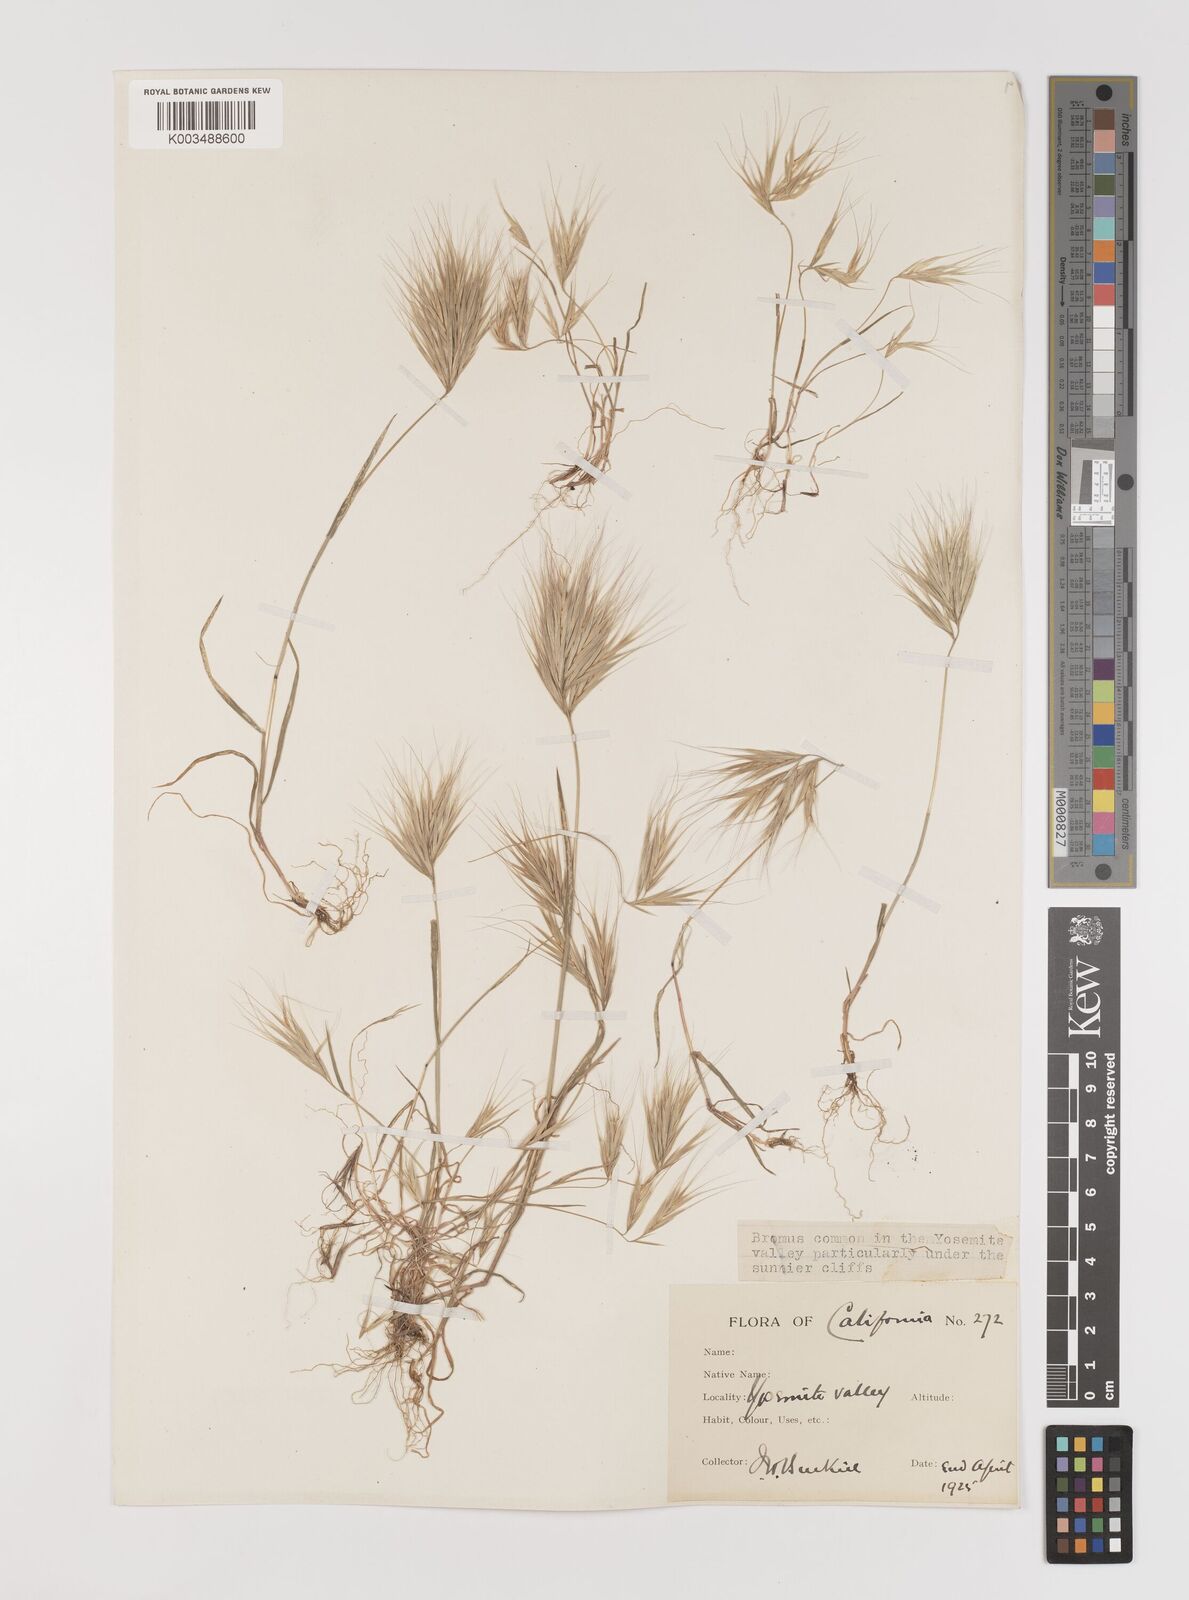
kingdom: Plantae
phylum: Tracheophyta
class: Liliopsida
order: Poales
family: Poaceae
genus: Bromus
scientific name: Bromus rubens
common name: Red brome
